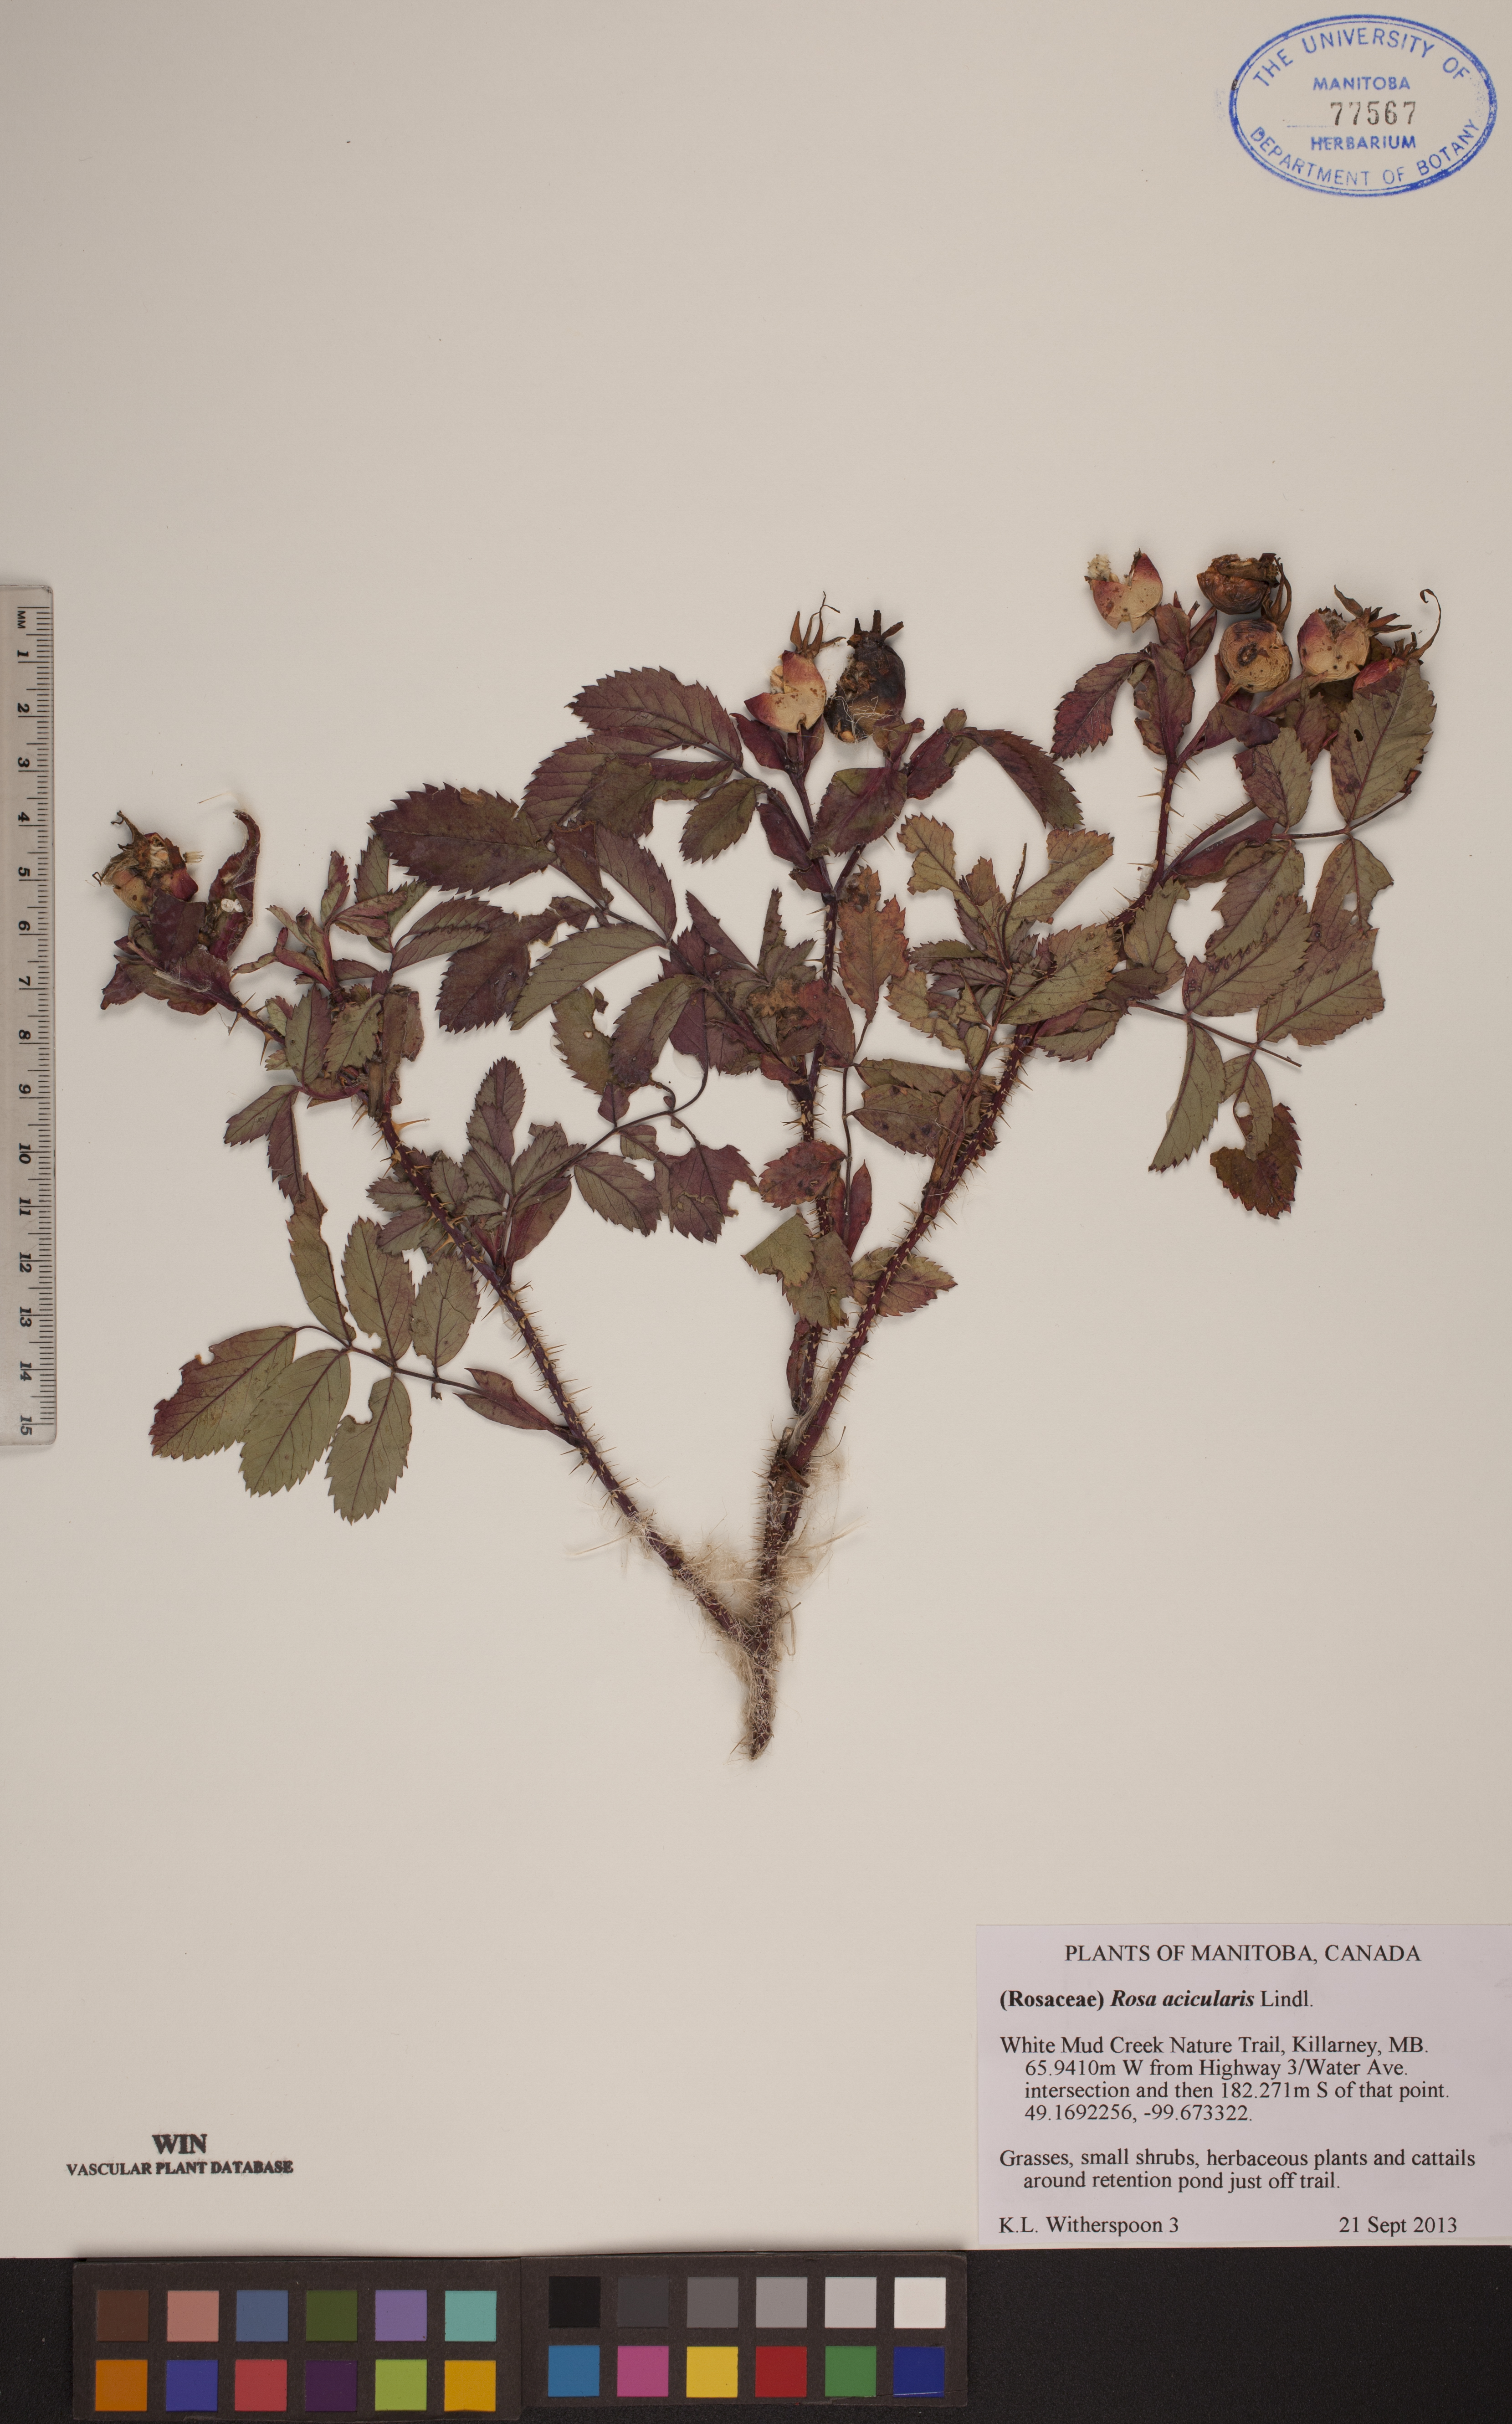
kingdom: Plantae
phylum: Tracheophyta
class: Magnoliopsida
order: Rosales
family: Rosaceae
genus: Rosa
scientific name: Rosa acicularis
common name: Prickly rose
